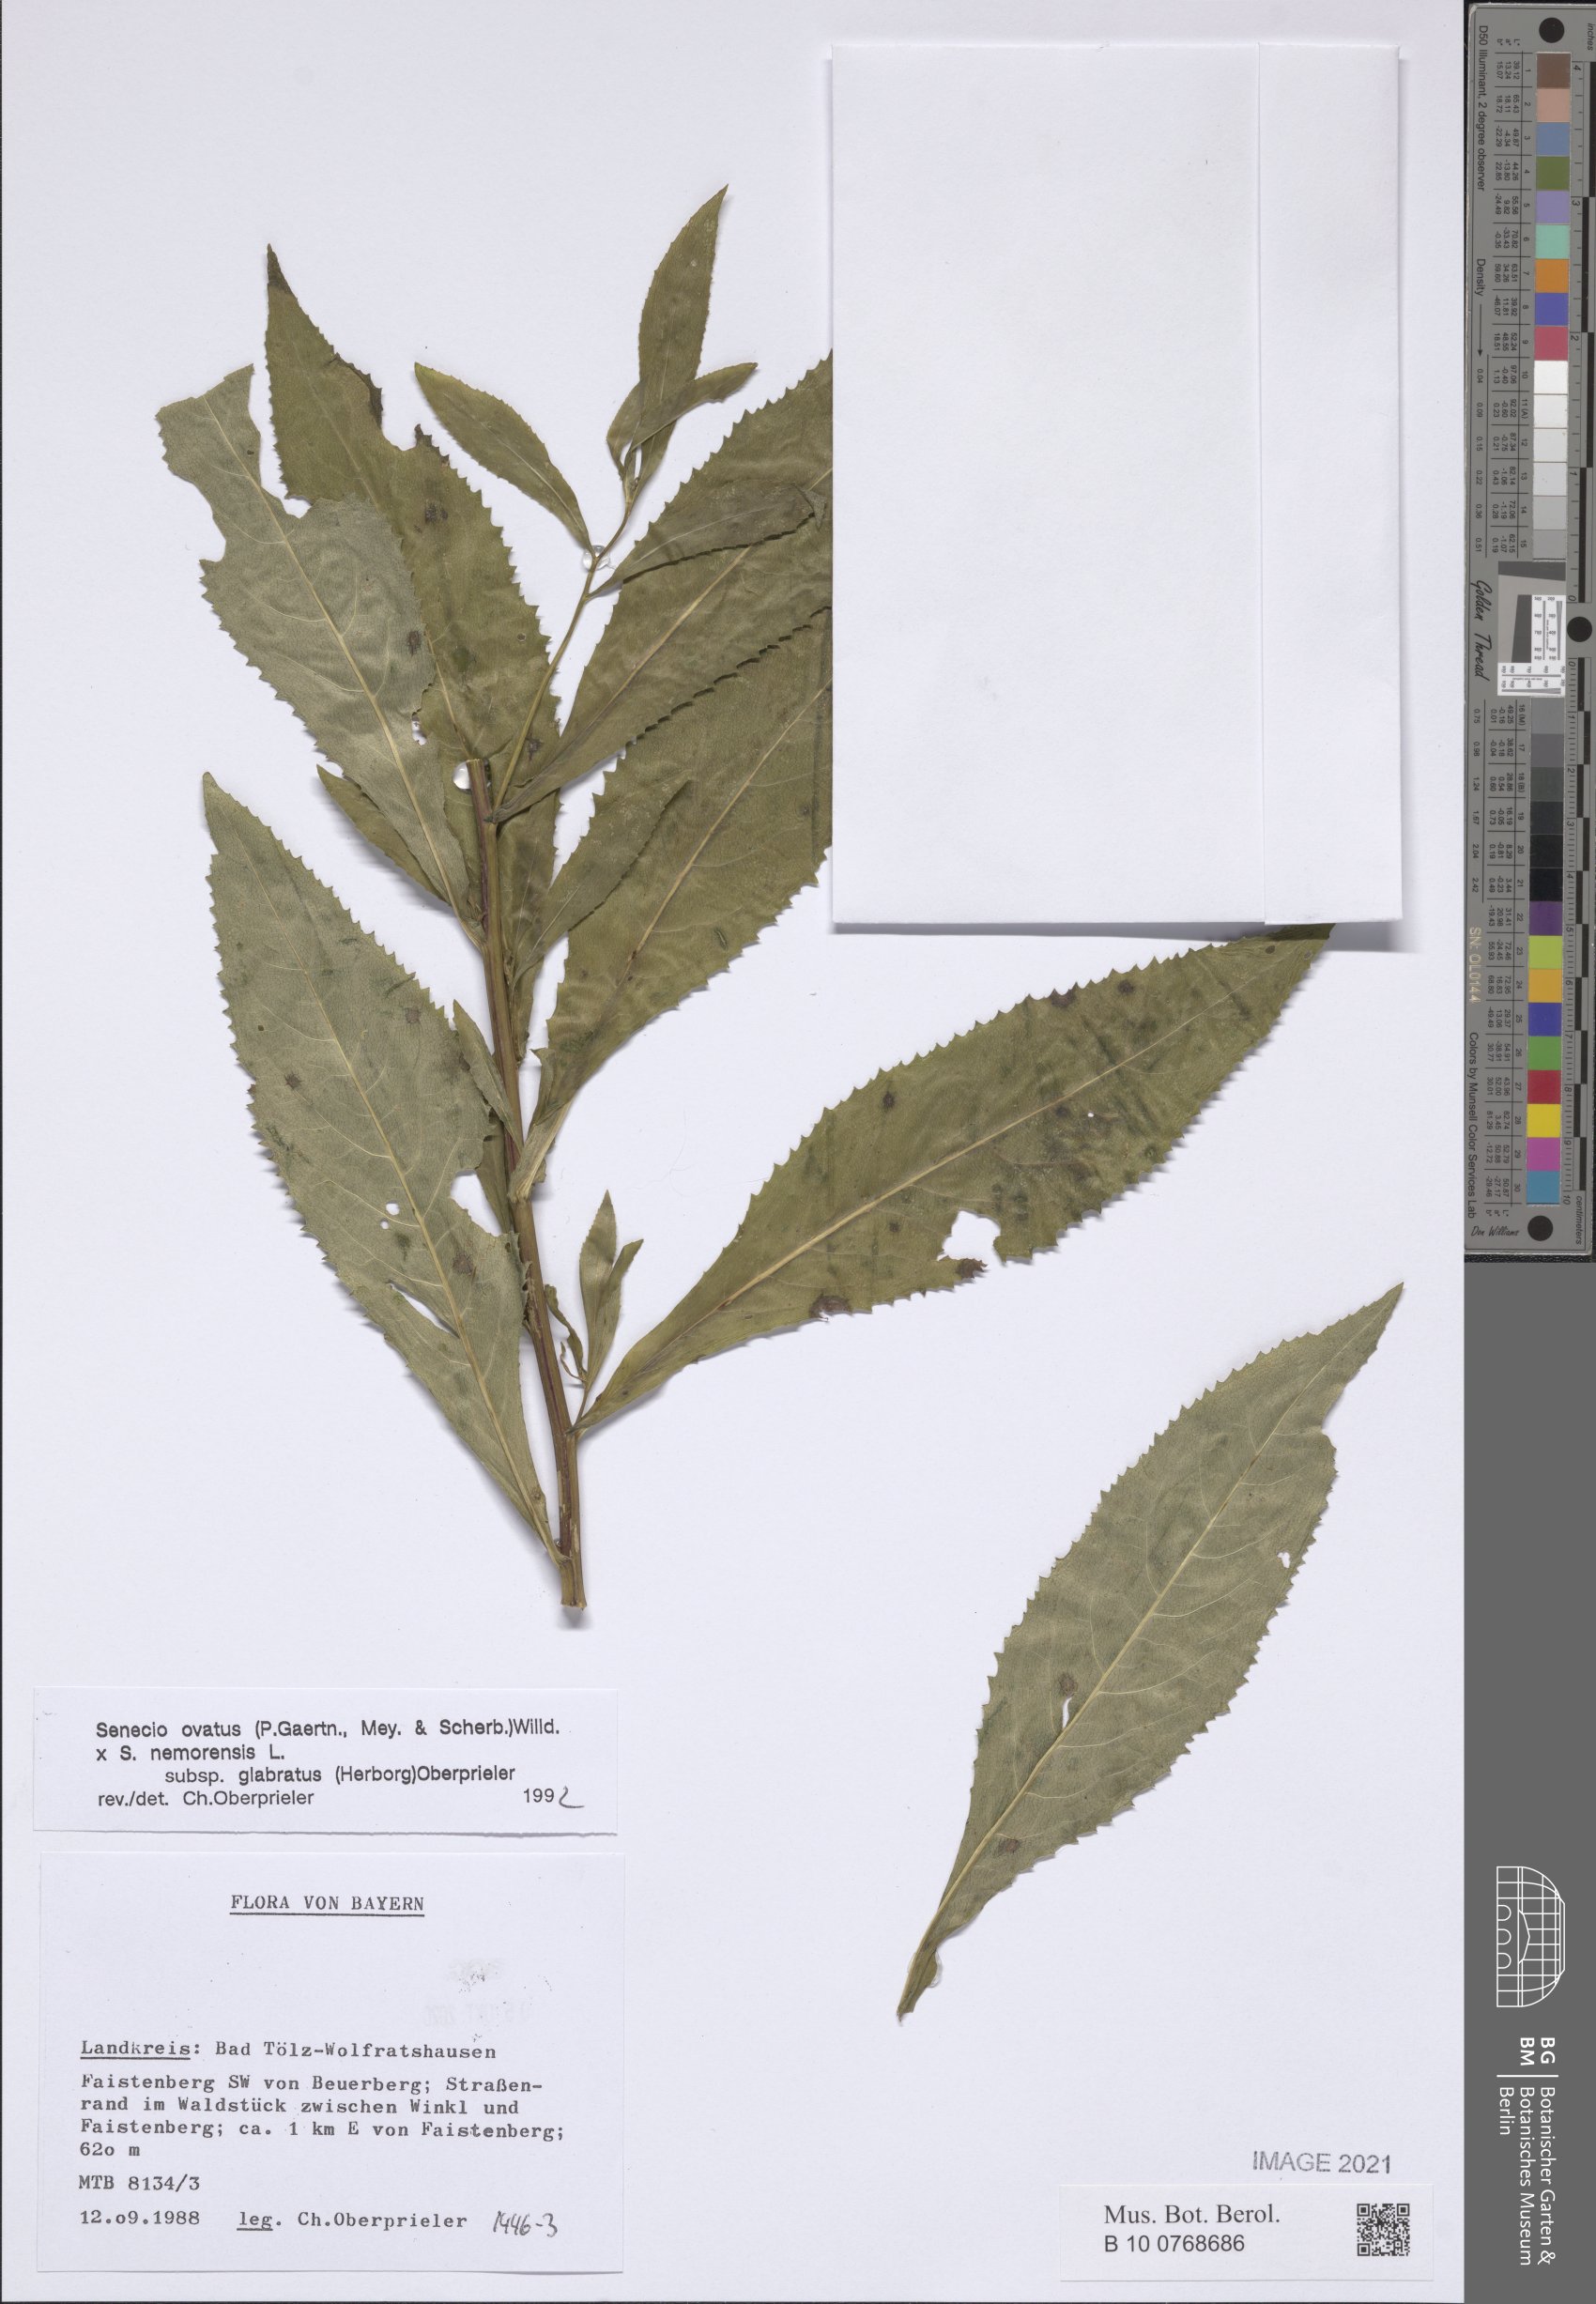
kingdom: Plantae
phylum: Tracheophyta
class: Magnoliopsida
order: Asterales
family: Asteraceae
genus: Senecio
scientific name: Senecio ovatus
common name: Wood ragwort
